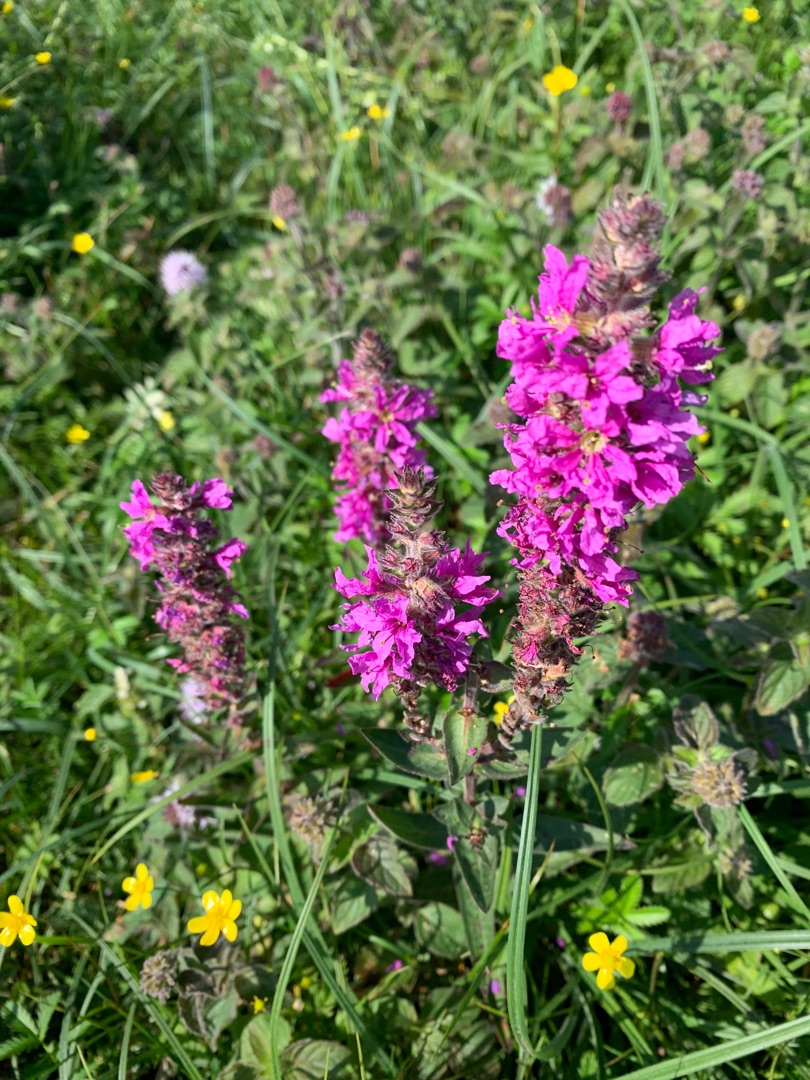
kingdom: Plantae
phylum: Tracheophyta
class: Magnoliopsida
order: Myrtales
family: Lythraceae
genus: Lythrum
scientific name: Lythrum salicaria
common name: Kattehale
